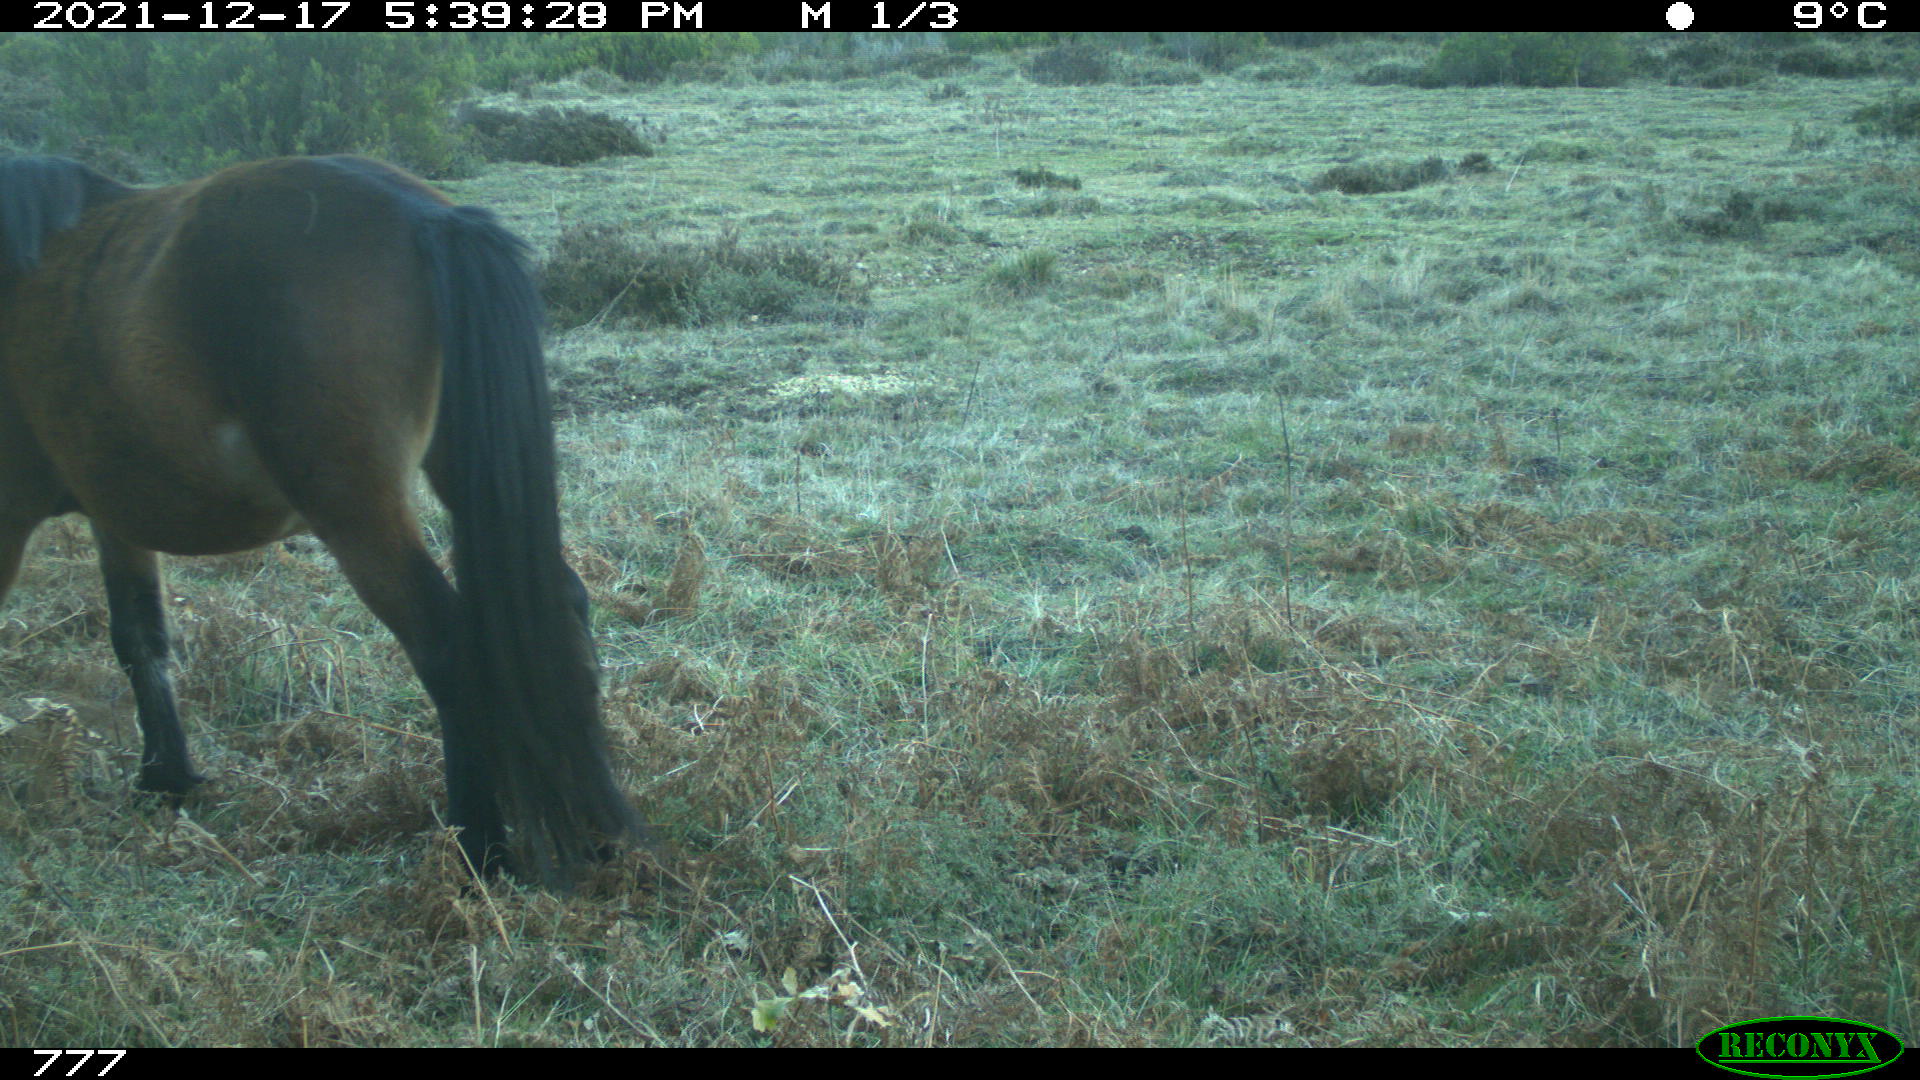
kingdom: Animalia
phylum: Chordata
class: Mammalia
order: Perissodactyla
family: Equidae
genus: Equus
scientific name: Equus caballus
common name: Horse
